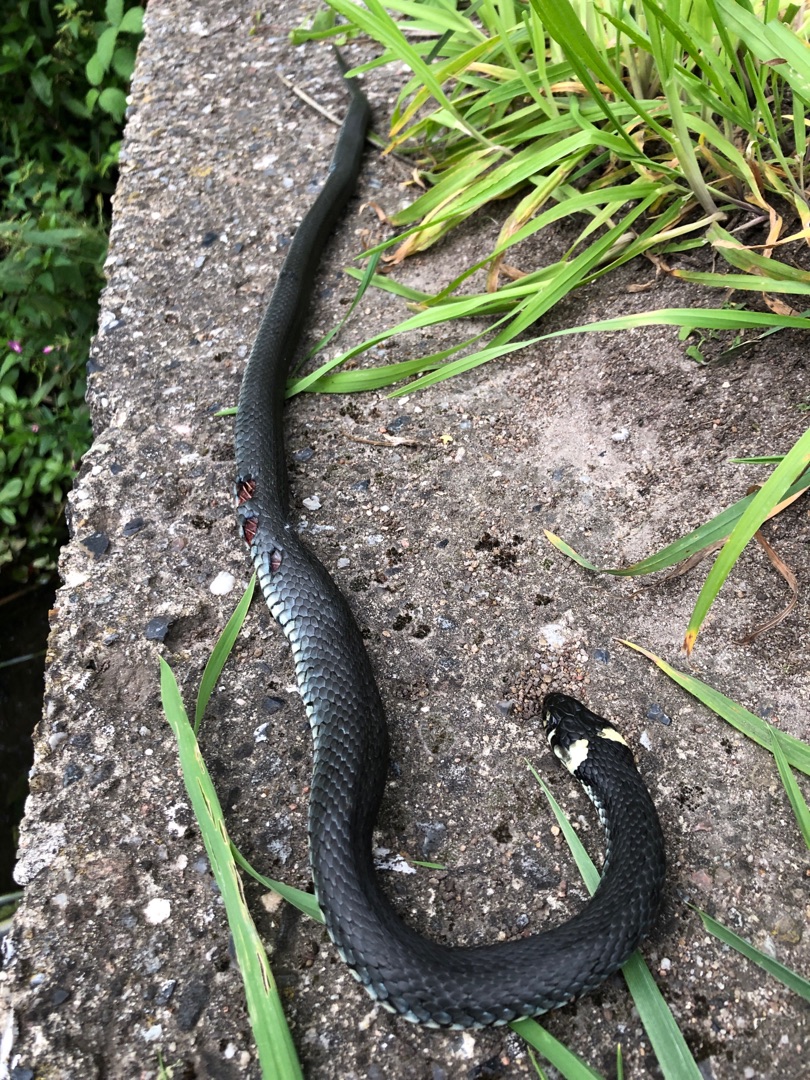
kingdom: Animalia
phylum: Chordata
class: Squamata
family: Colubridae
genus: Natrix
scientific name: Natrix natrix
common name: Snog
